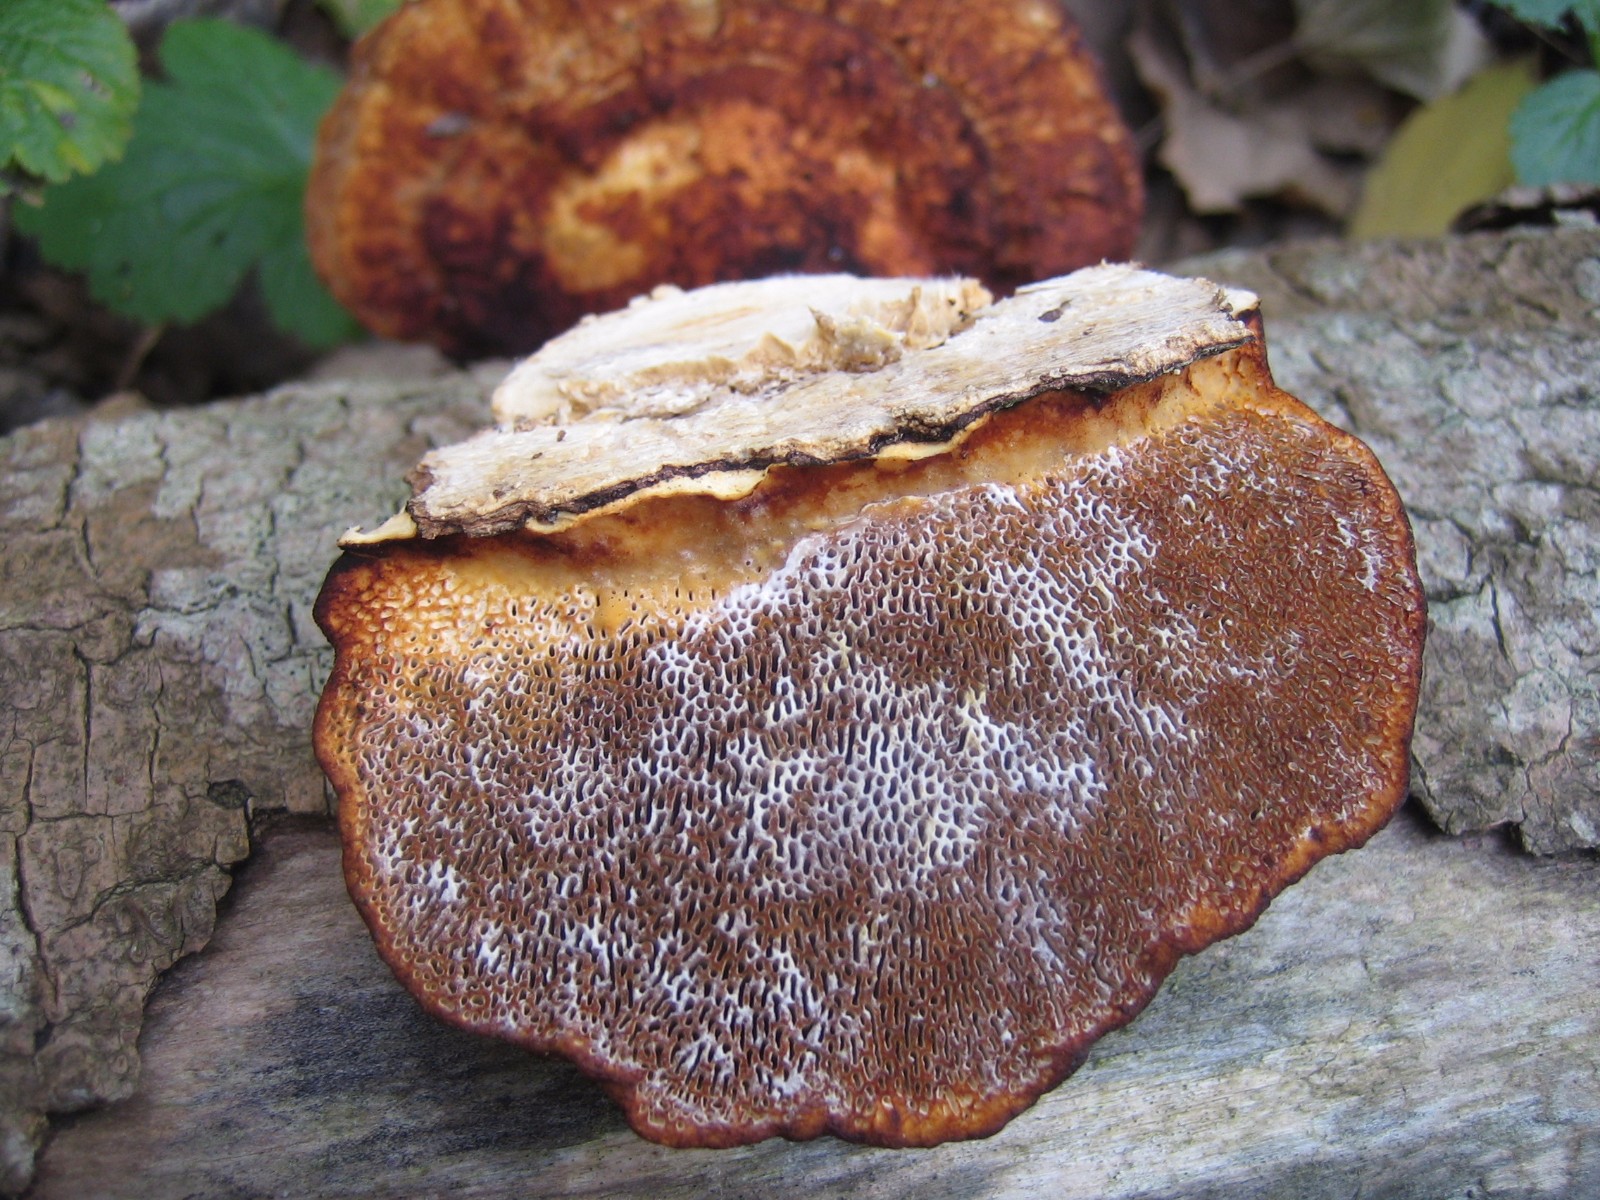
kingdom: Fungi
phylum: Basidiomycota
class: Agaricomycetes
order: Polyporales
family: Polyporaceae
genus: Daedaleopsis
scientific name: Daedaleopsis confragosa
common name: rødmende læderporesvamp
